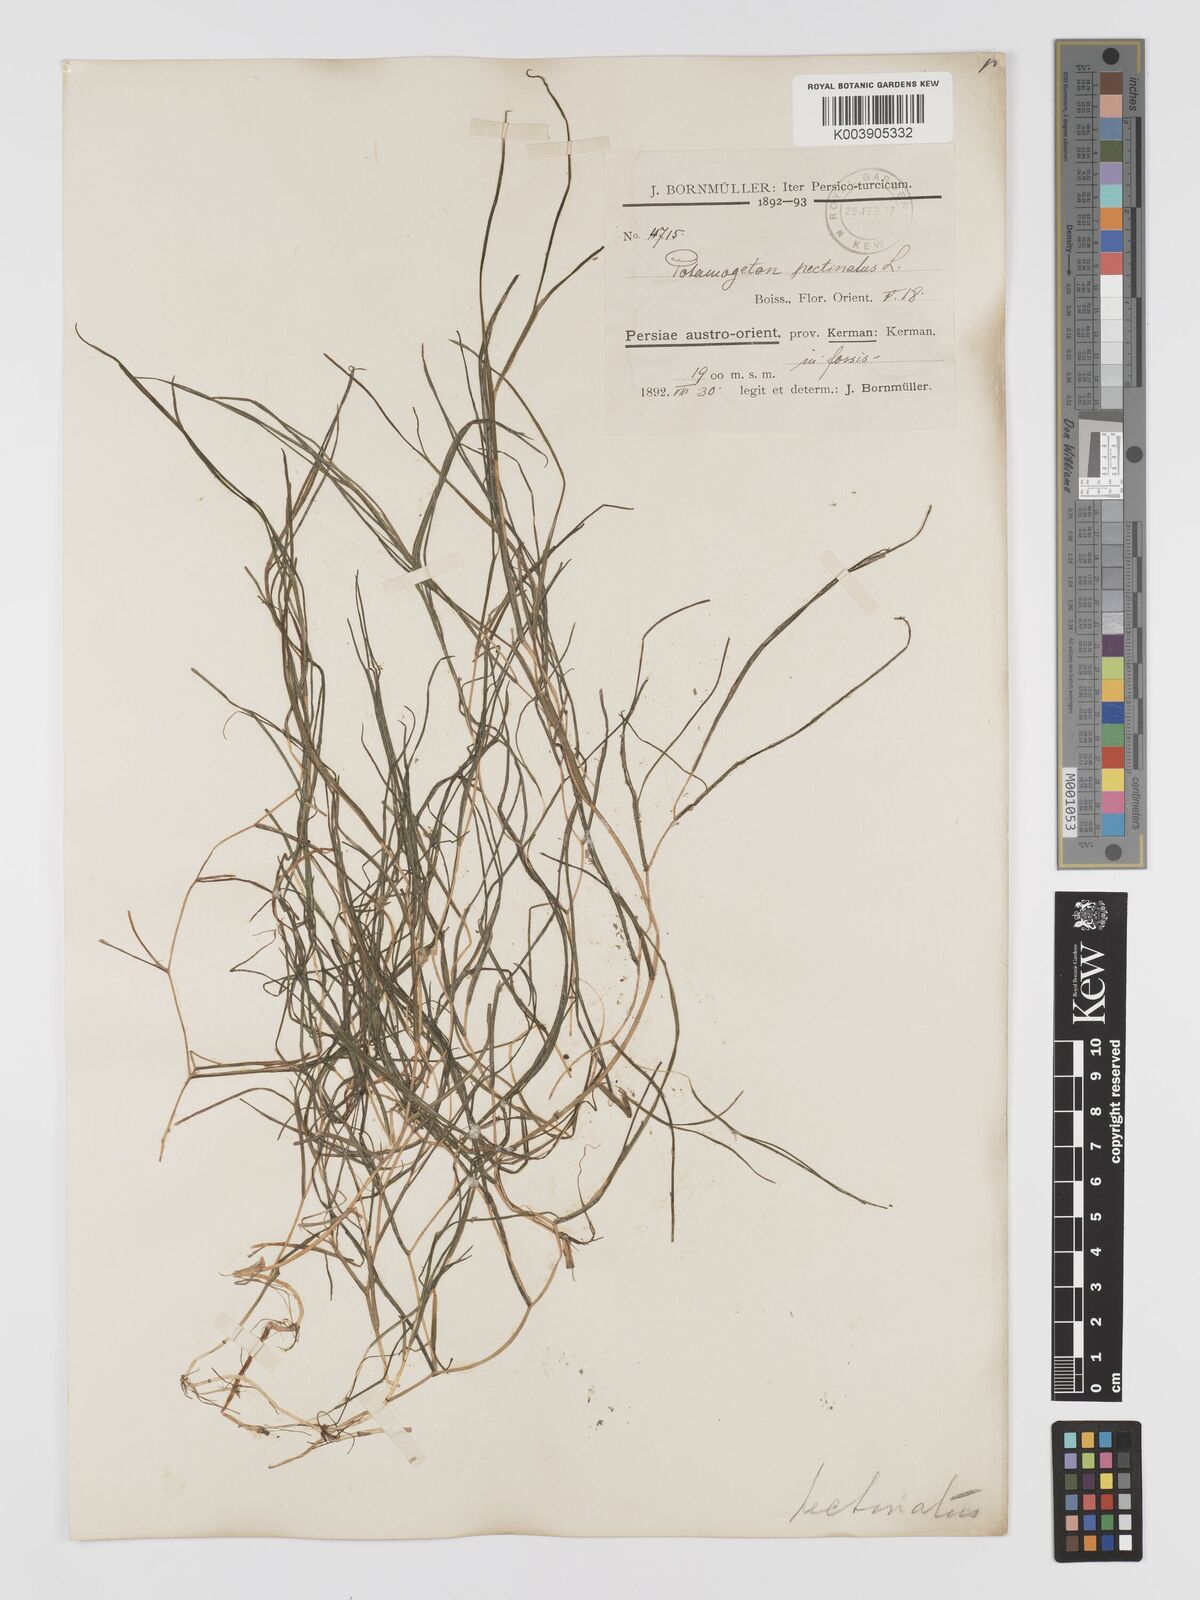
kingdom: Plantae
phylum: Tracheophyta
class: Liliopsida
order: Alismatales
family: Potamogetonaceae
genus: Stuckenia
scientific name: Stuckenia pectinata
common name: Sago pondweed
